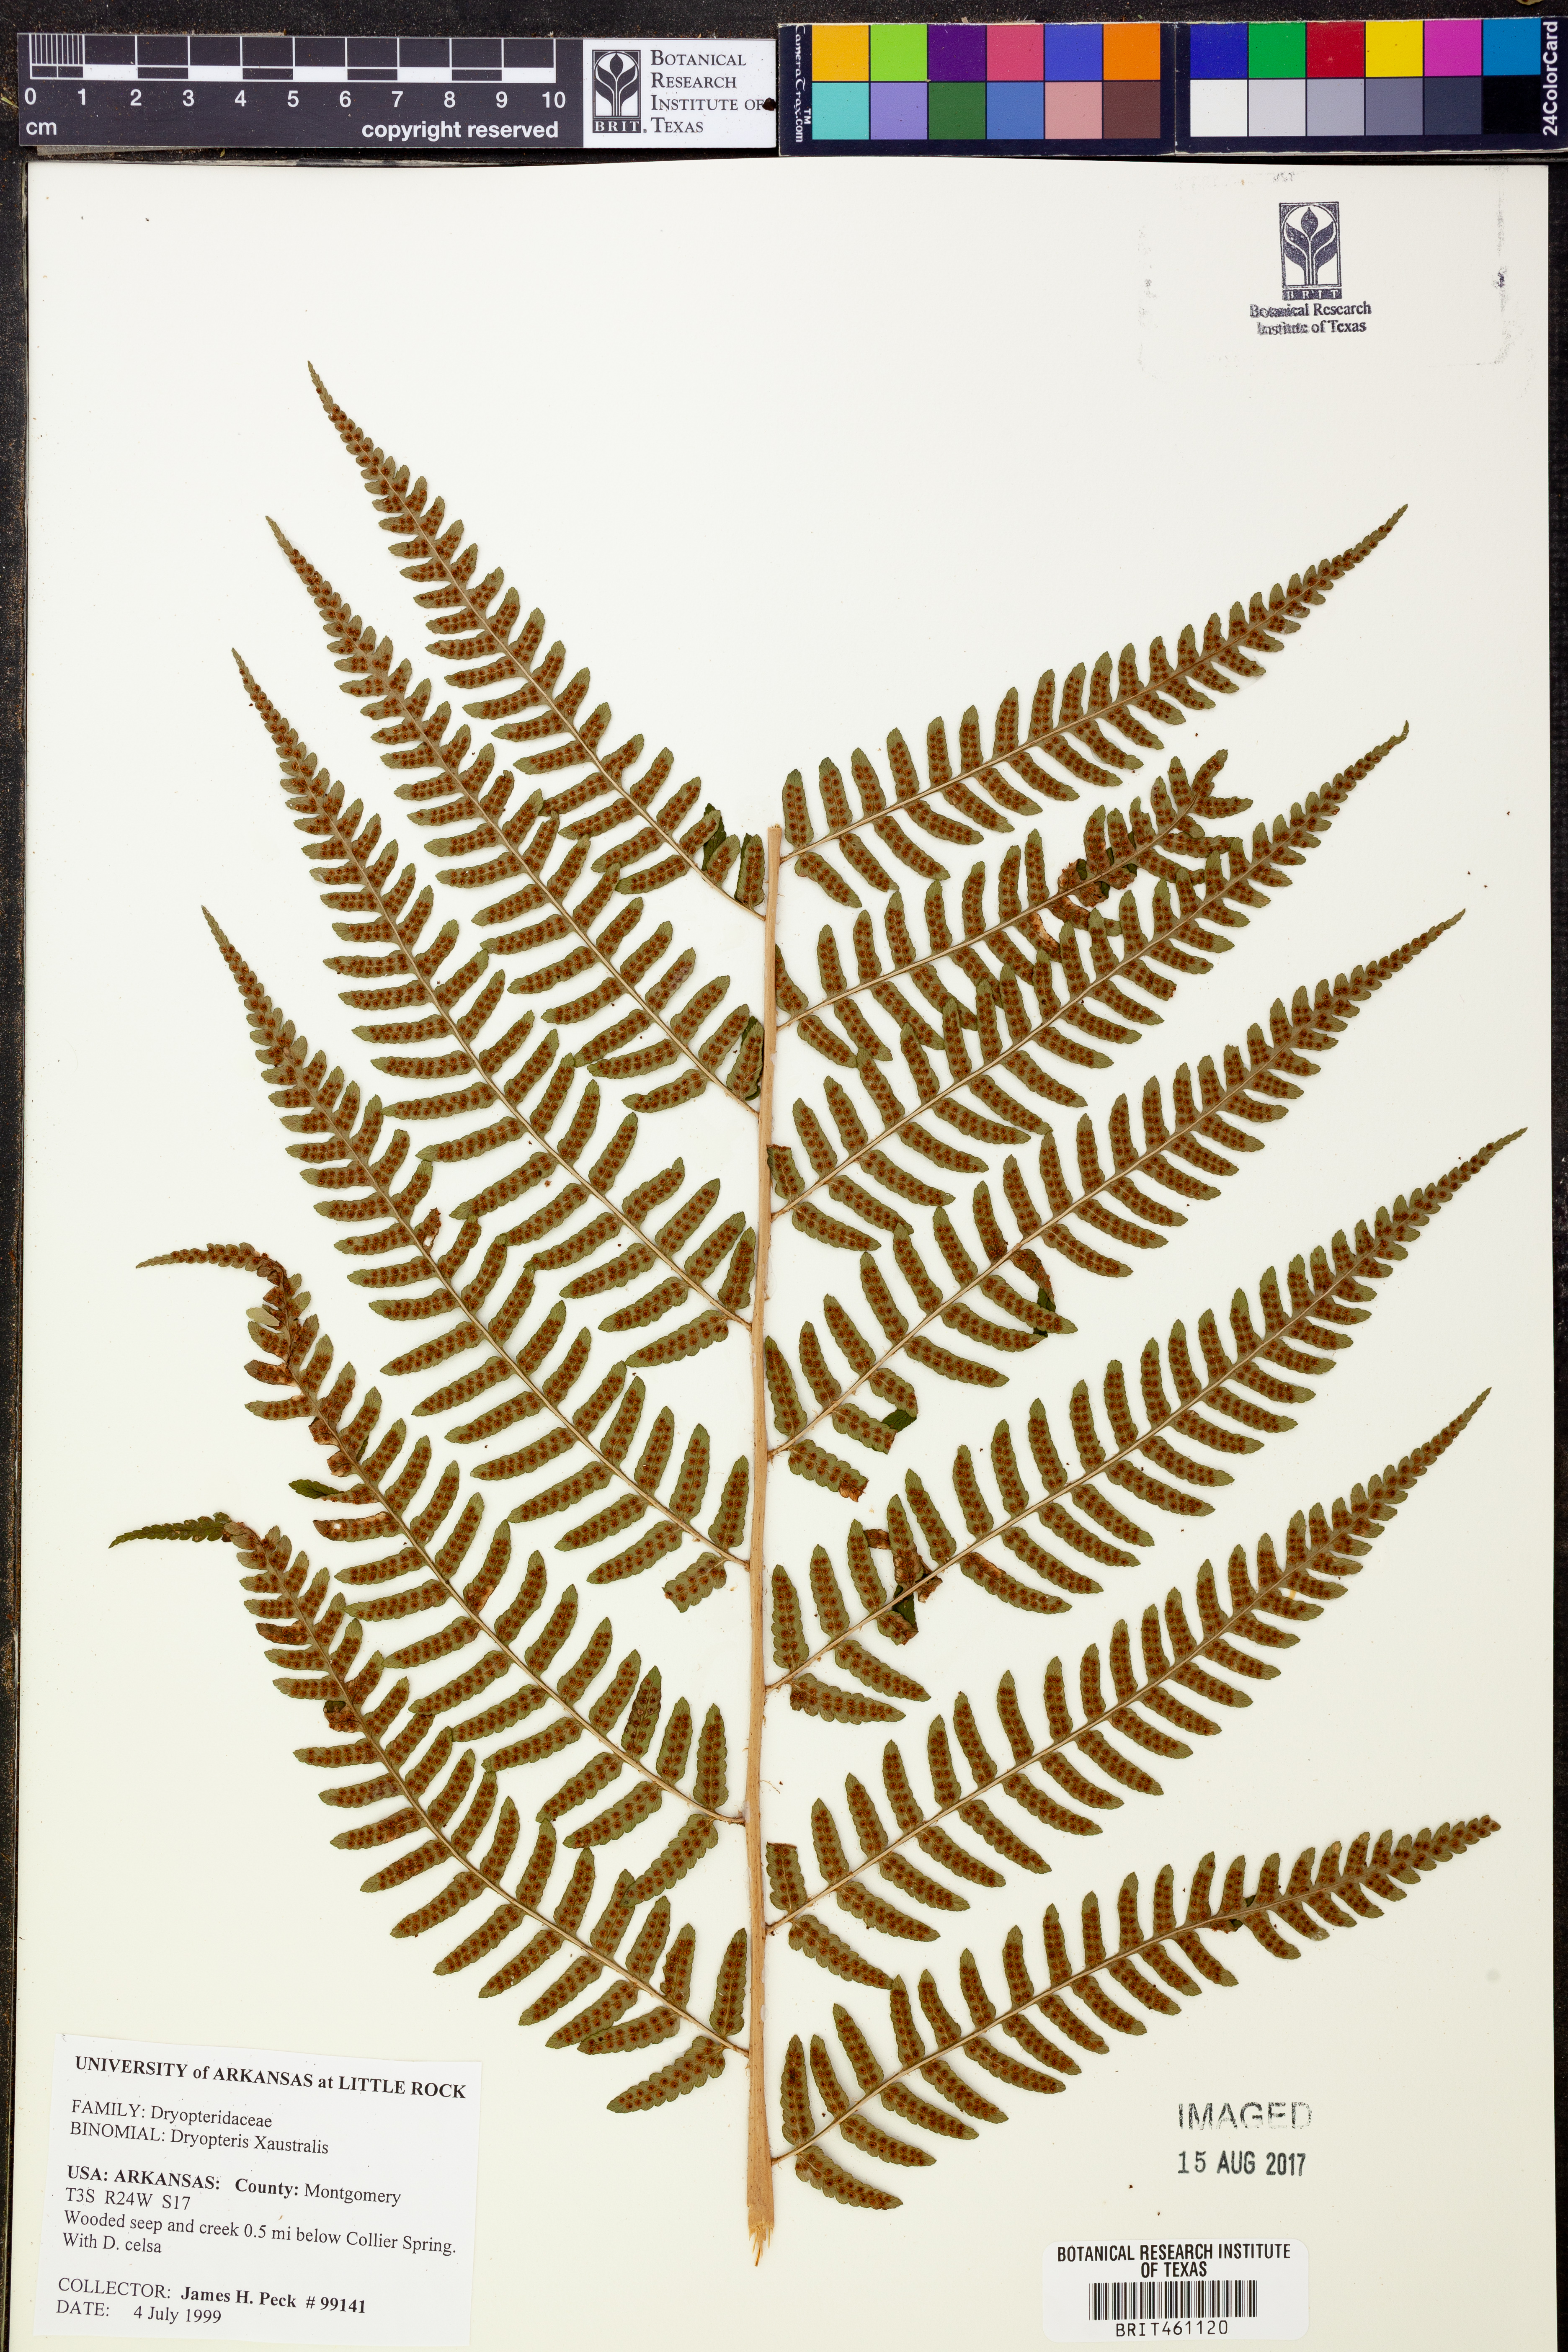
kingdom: Plantae
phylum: Tracheophyta
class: Polypodiopsida
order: Polypodiales
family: Dryopteridaceae
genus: Dryopteris
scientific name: Dryopteris
